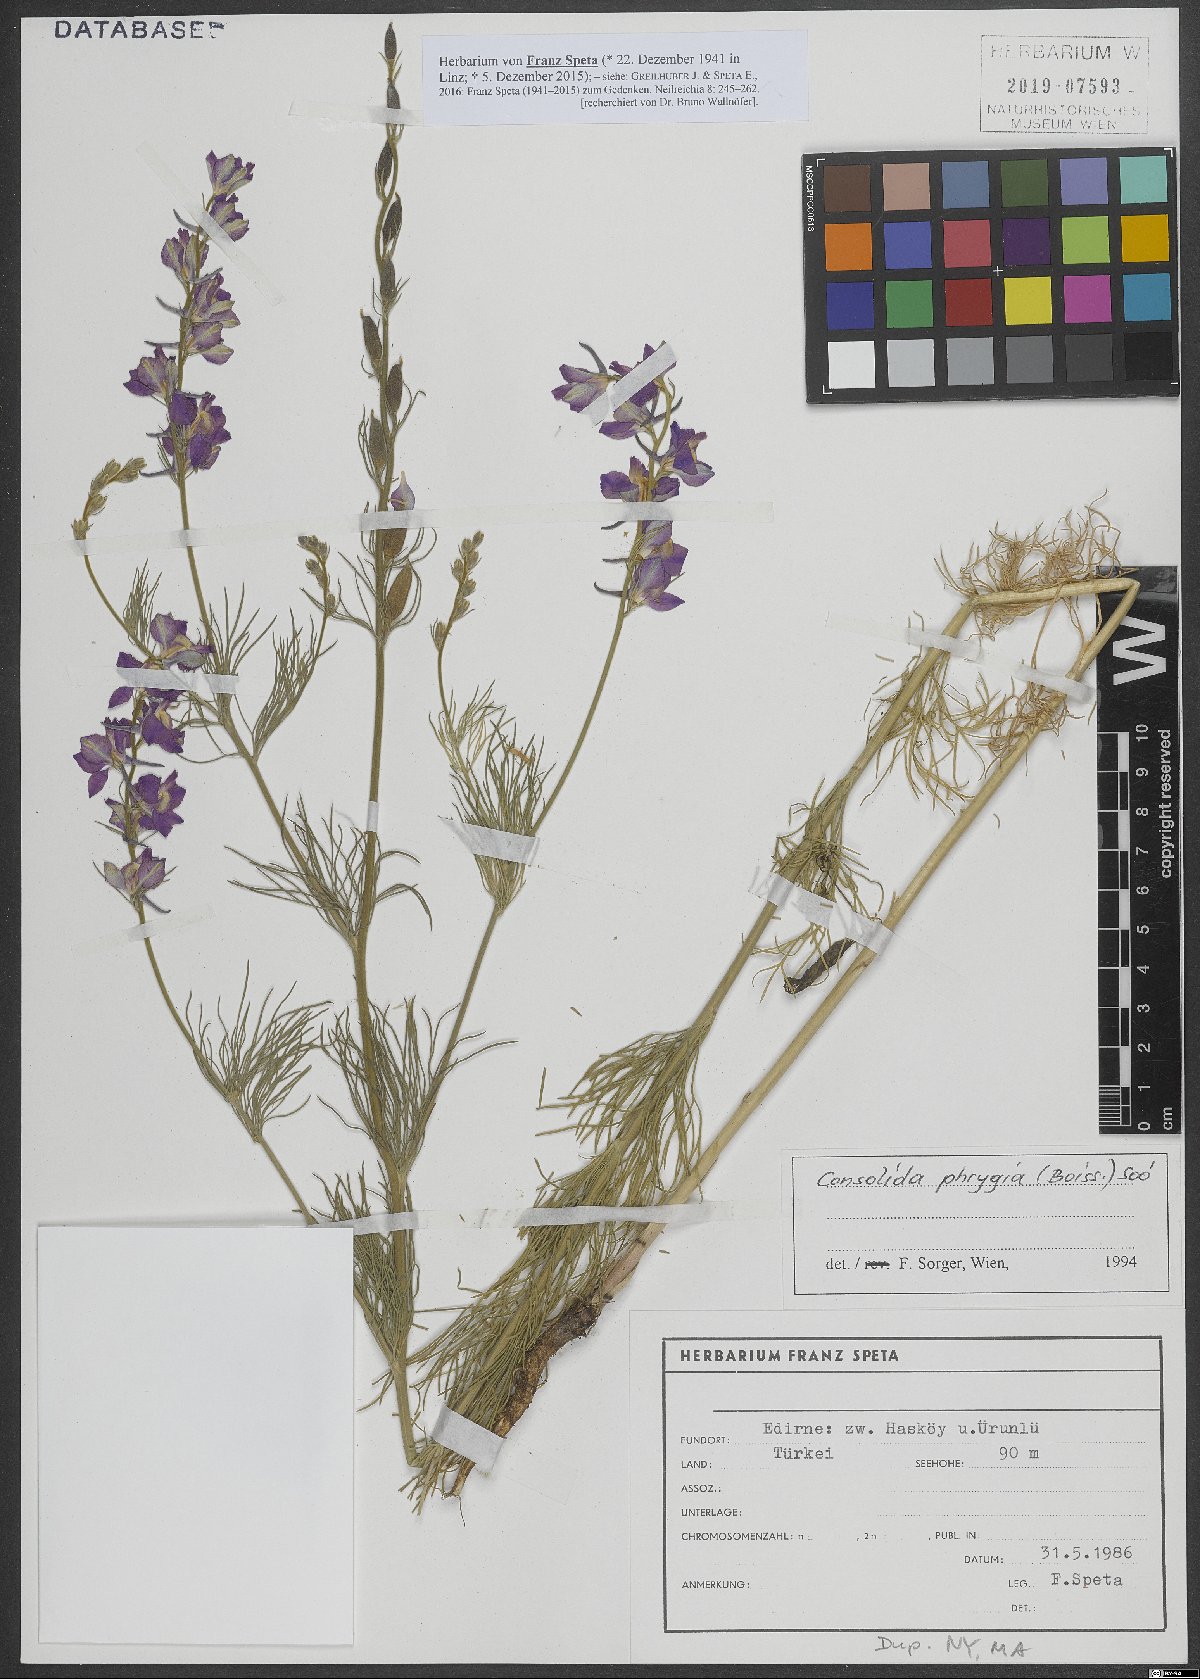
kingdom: Plantae
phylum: Tracheophyta
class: Magnoliopsida
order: Ranunculales
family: Ranunculaceae
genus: Delphinium
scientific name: Delphinium phrygium
